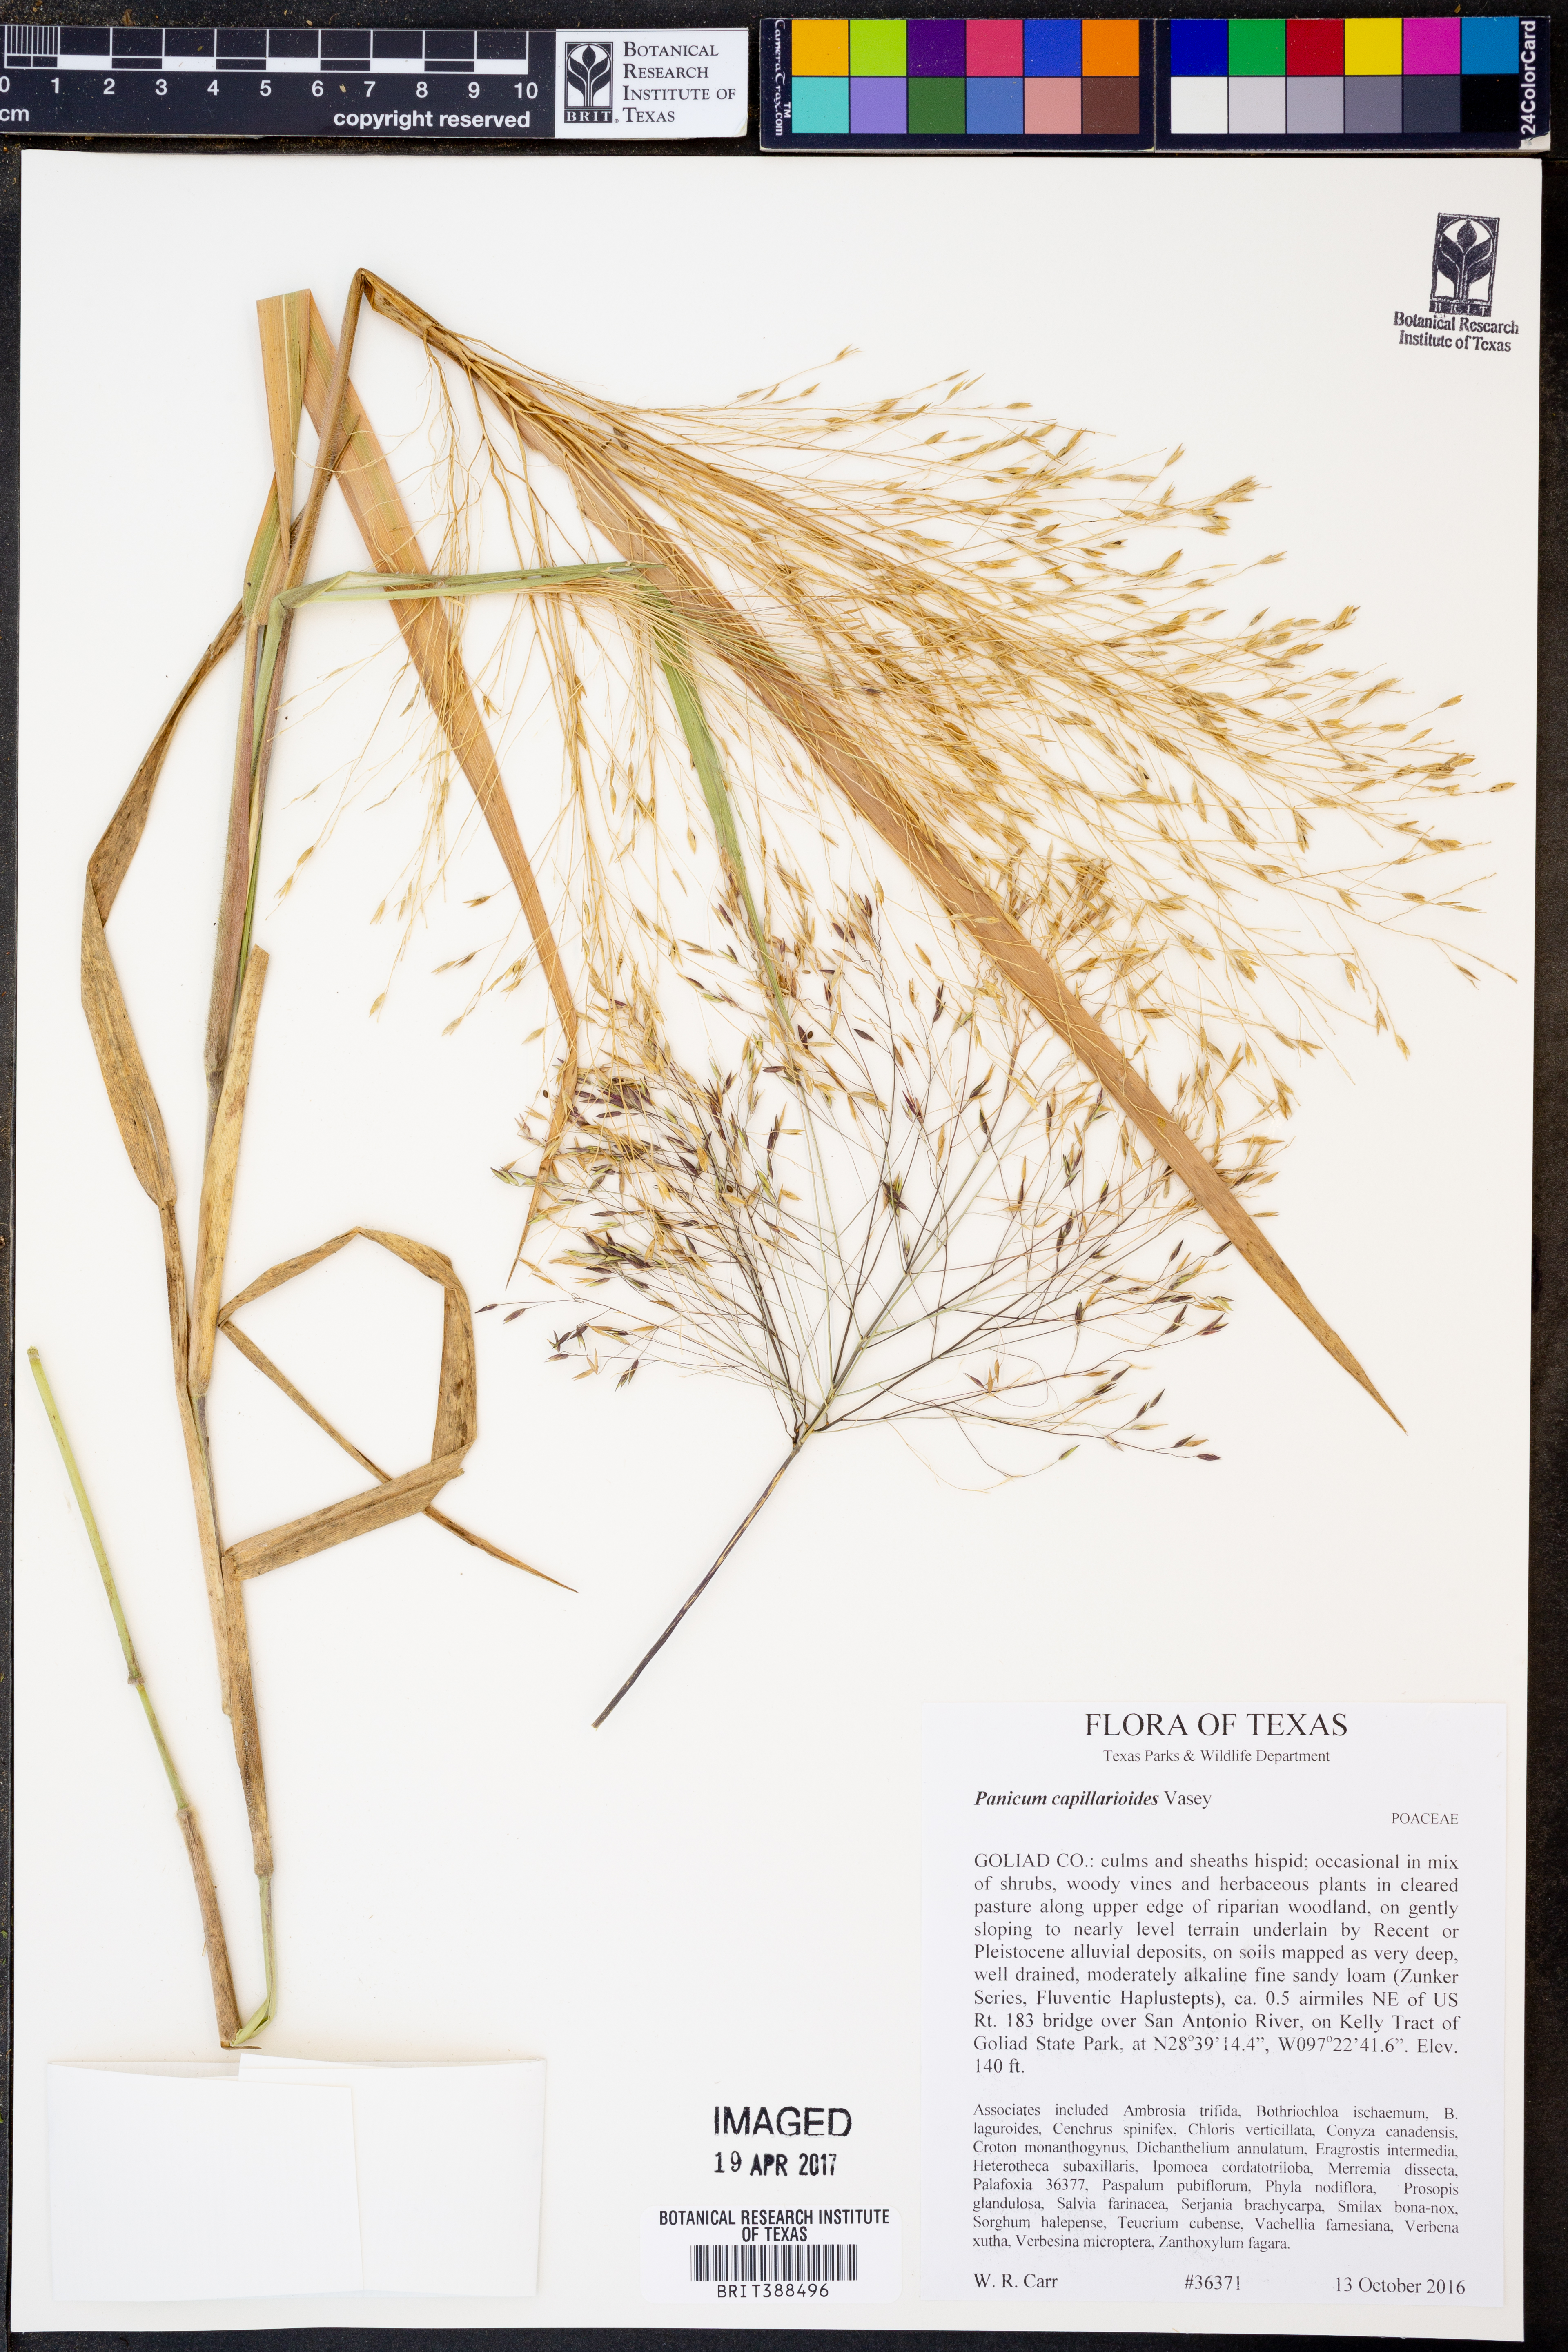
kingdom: Plantae
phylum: Tracheophyta
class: Liliopsida
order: Poales
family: Poaceae
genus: Panicum
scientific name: Panicum capillarioides
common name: Long-beak witchgrass
